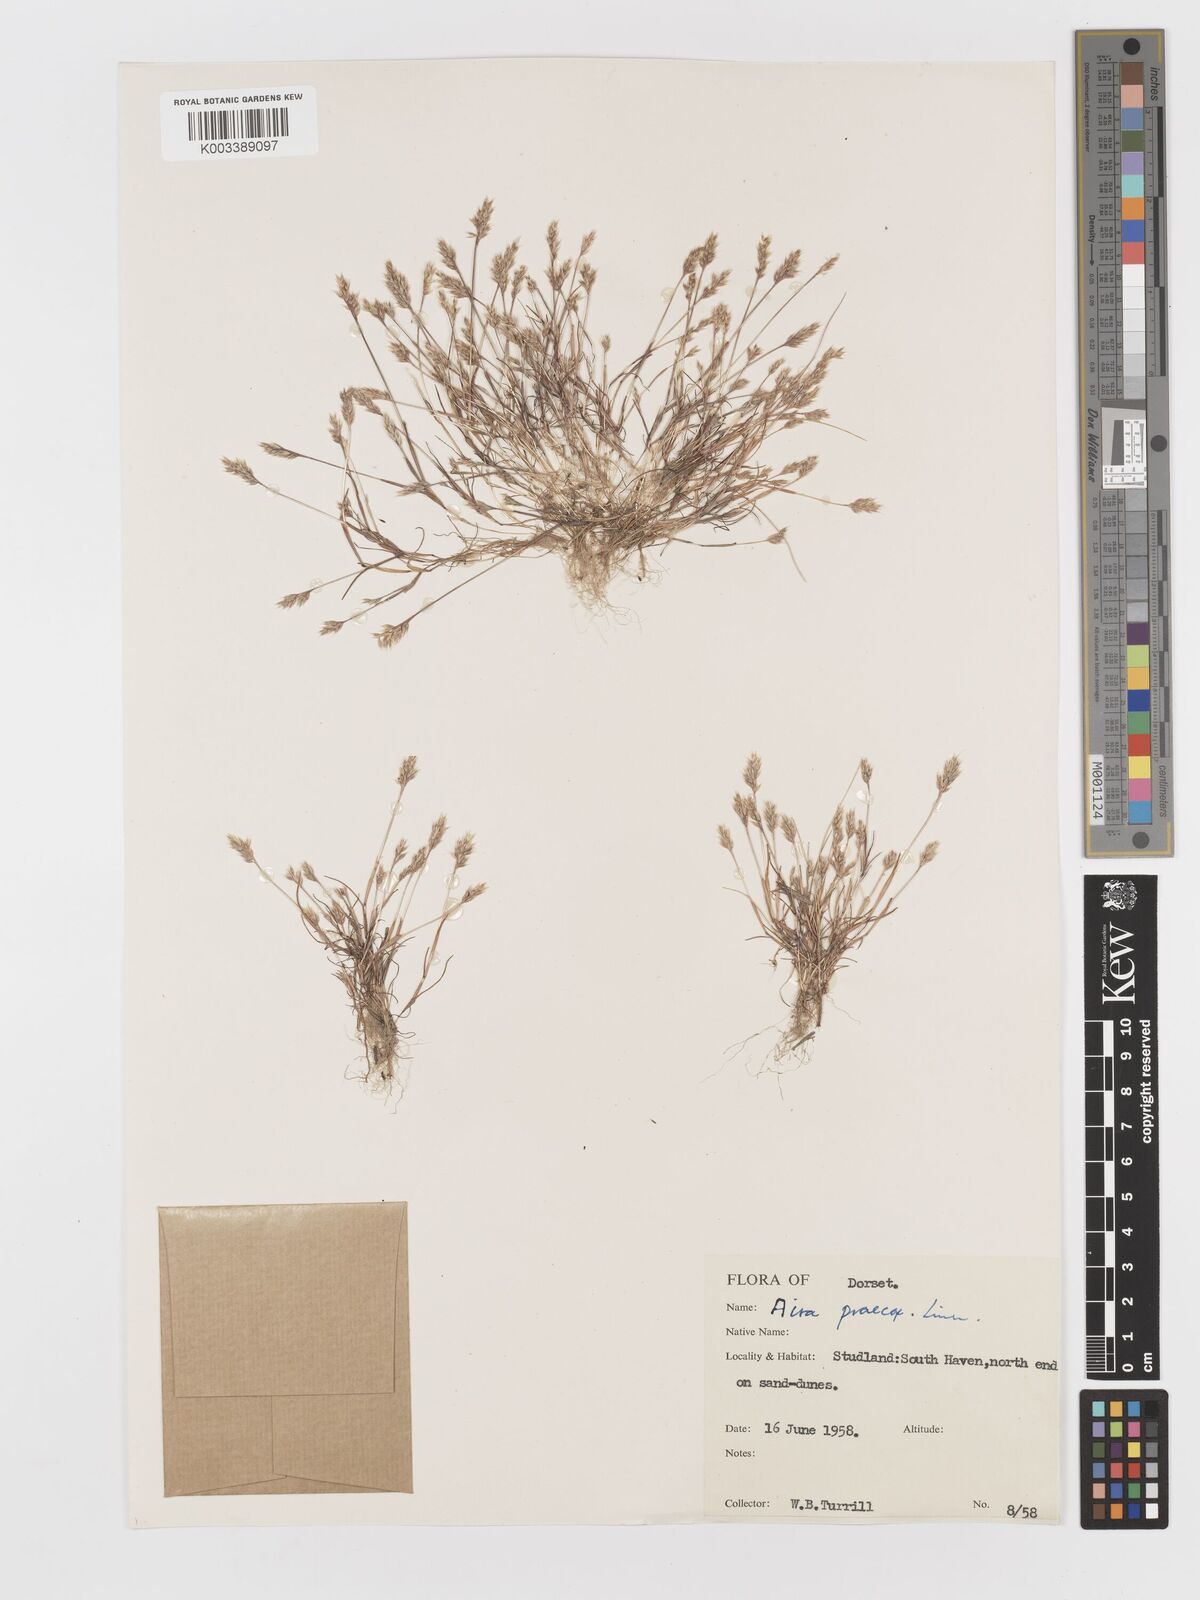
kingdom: Plantae
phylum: Tracheophyta
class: Liliopsida
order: Poales
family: Poaceae
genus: Aira
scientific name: Aira praecox
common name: Early hair-grass
